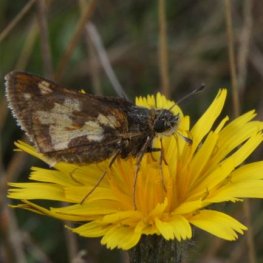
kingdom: Animalia
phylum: Arthropoda
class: Insecta
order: Lepidoptera
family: Hesperiidae
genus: Polites
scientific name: Polites coras
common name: Peck's Skipper
